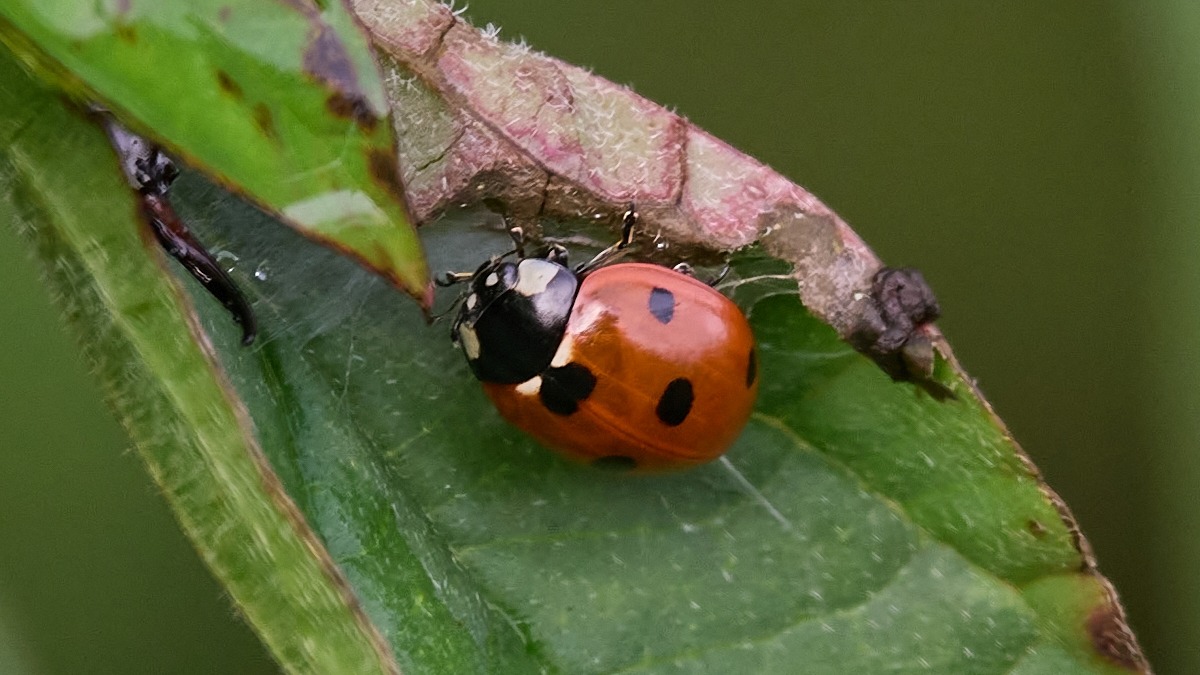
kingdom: Animalia
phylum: Arthropoda
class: Insecta
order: Coleoptera
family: Coccinellidae
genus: Coccinella
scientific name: Coccinella septempunctata
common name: Syvplettet mariehøne
